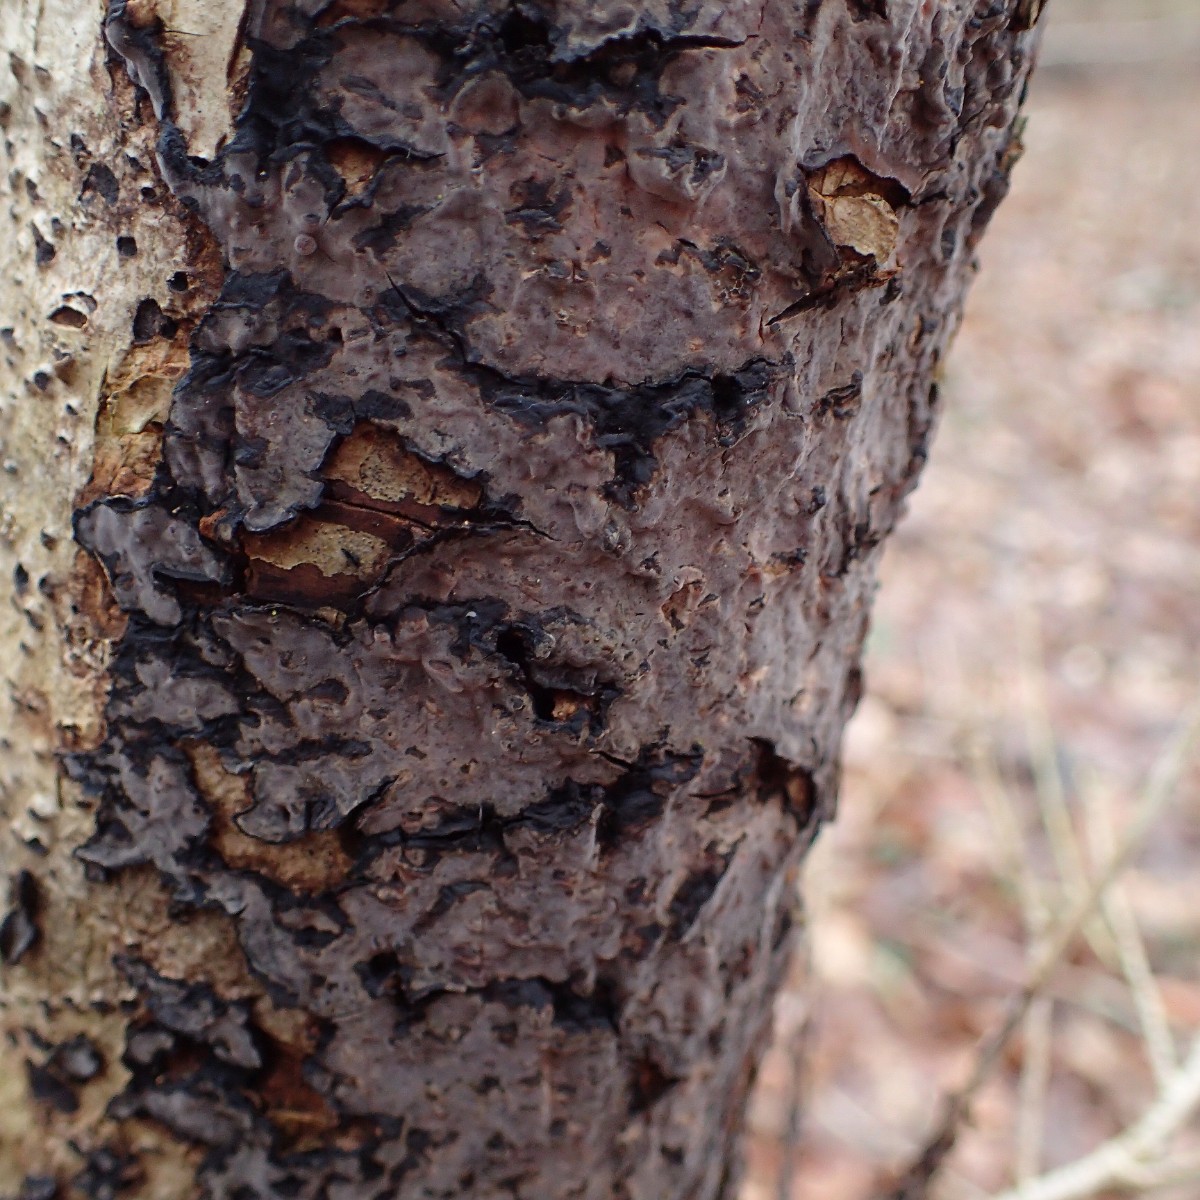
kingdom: Fungi
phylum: Basidiomycota
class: Agaricomycetes
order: Russulales
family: Peniophoraceae
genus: Peniophora
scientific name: Peniophora quercina
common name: ege-voksskind
